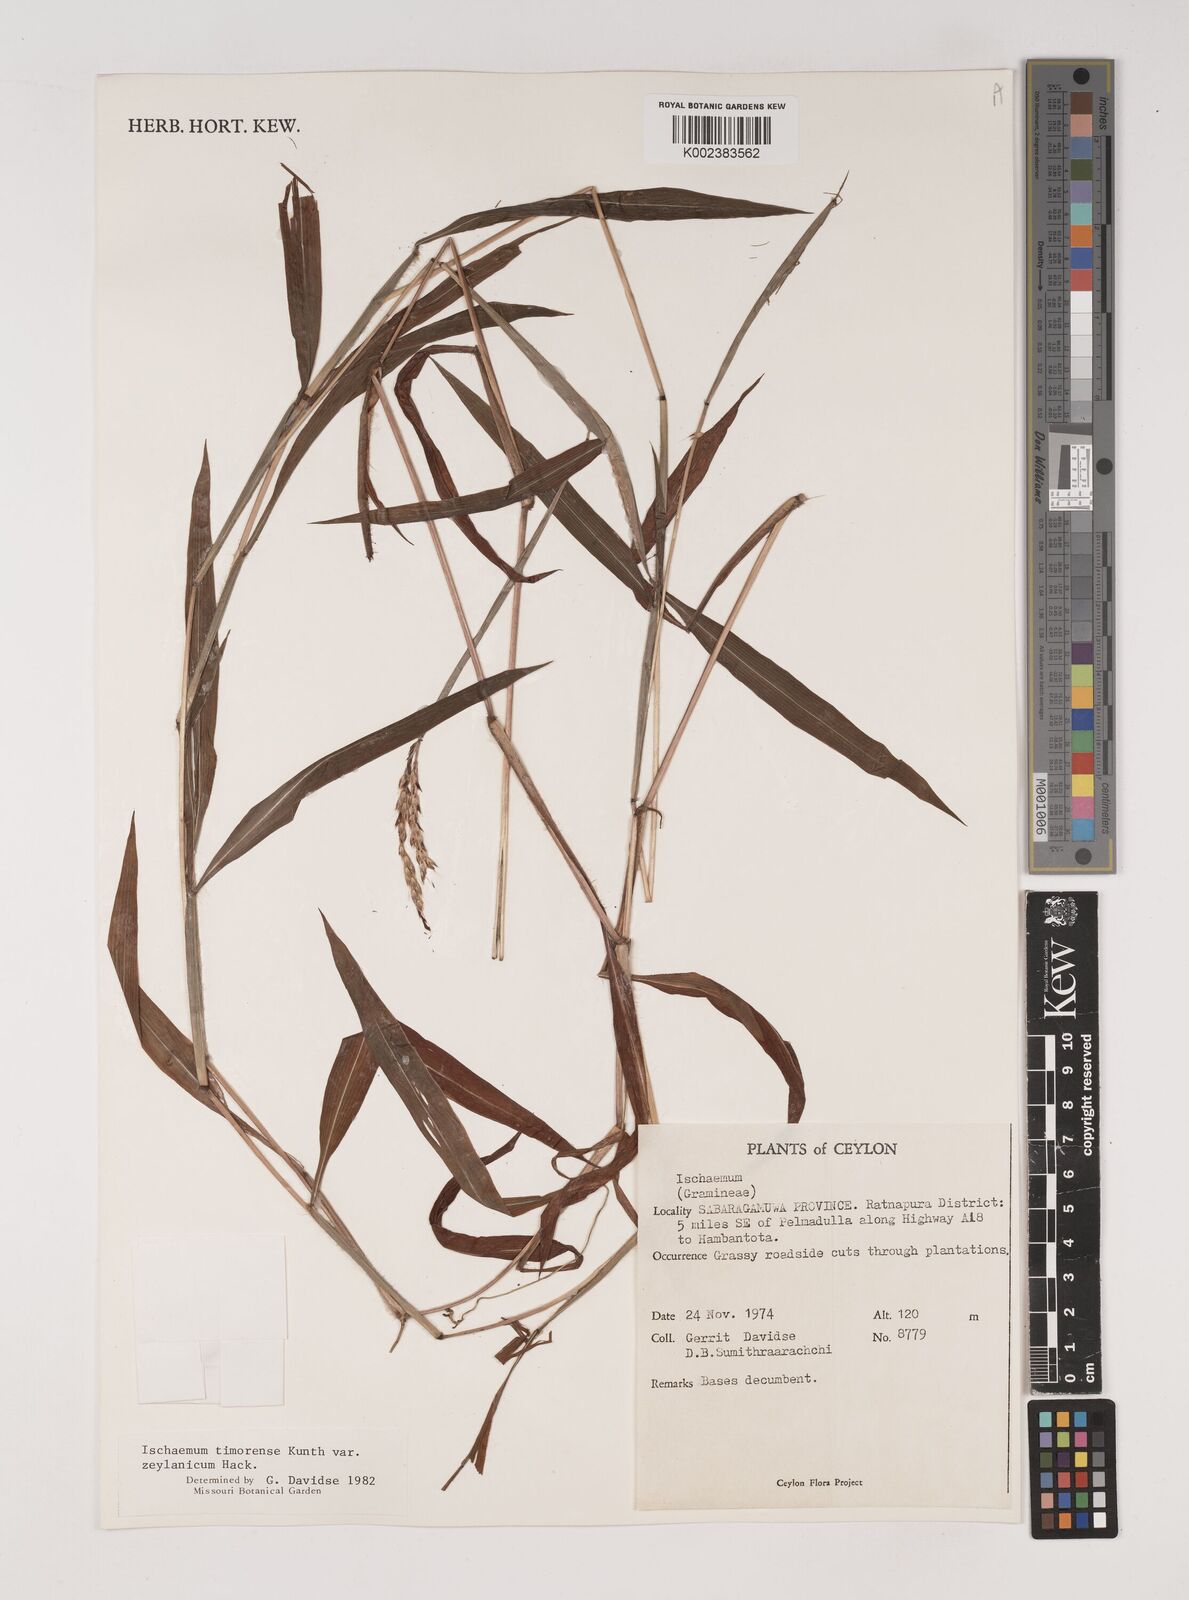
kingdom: Plantae
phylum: Tracheophyta
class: Liliopsida
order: Poales
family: Poaceae
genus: Ischaemum
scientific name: Ischaemum timorense
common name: Stalkleaf murainagrass
